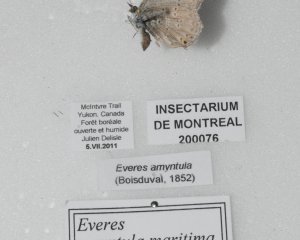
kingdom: Animalia
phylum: Arthropoda
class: Insecta
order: Lepidoptera
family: Lycaenidae
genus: Elkalyce
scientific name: Elkalyce amyntula
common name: Western Tailed-Blue
